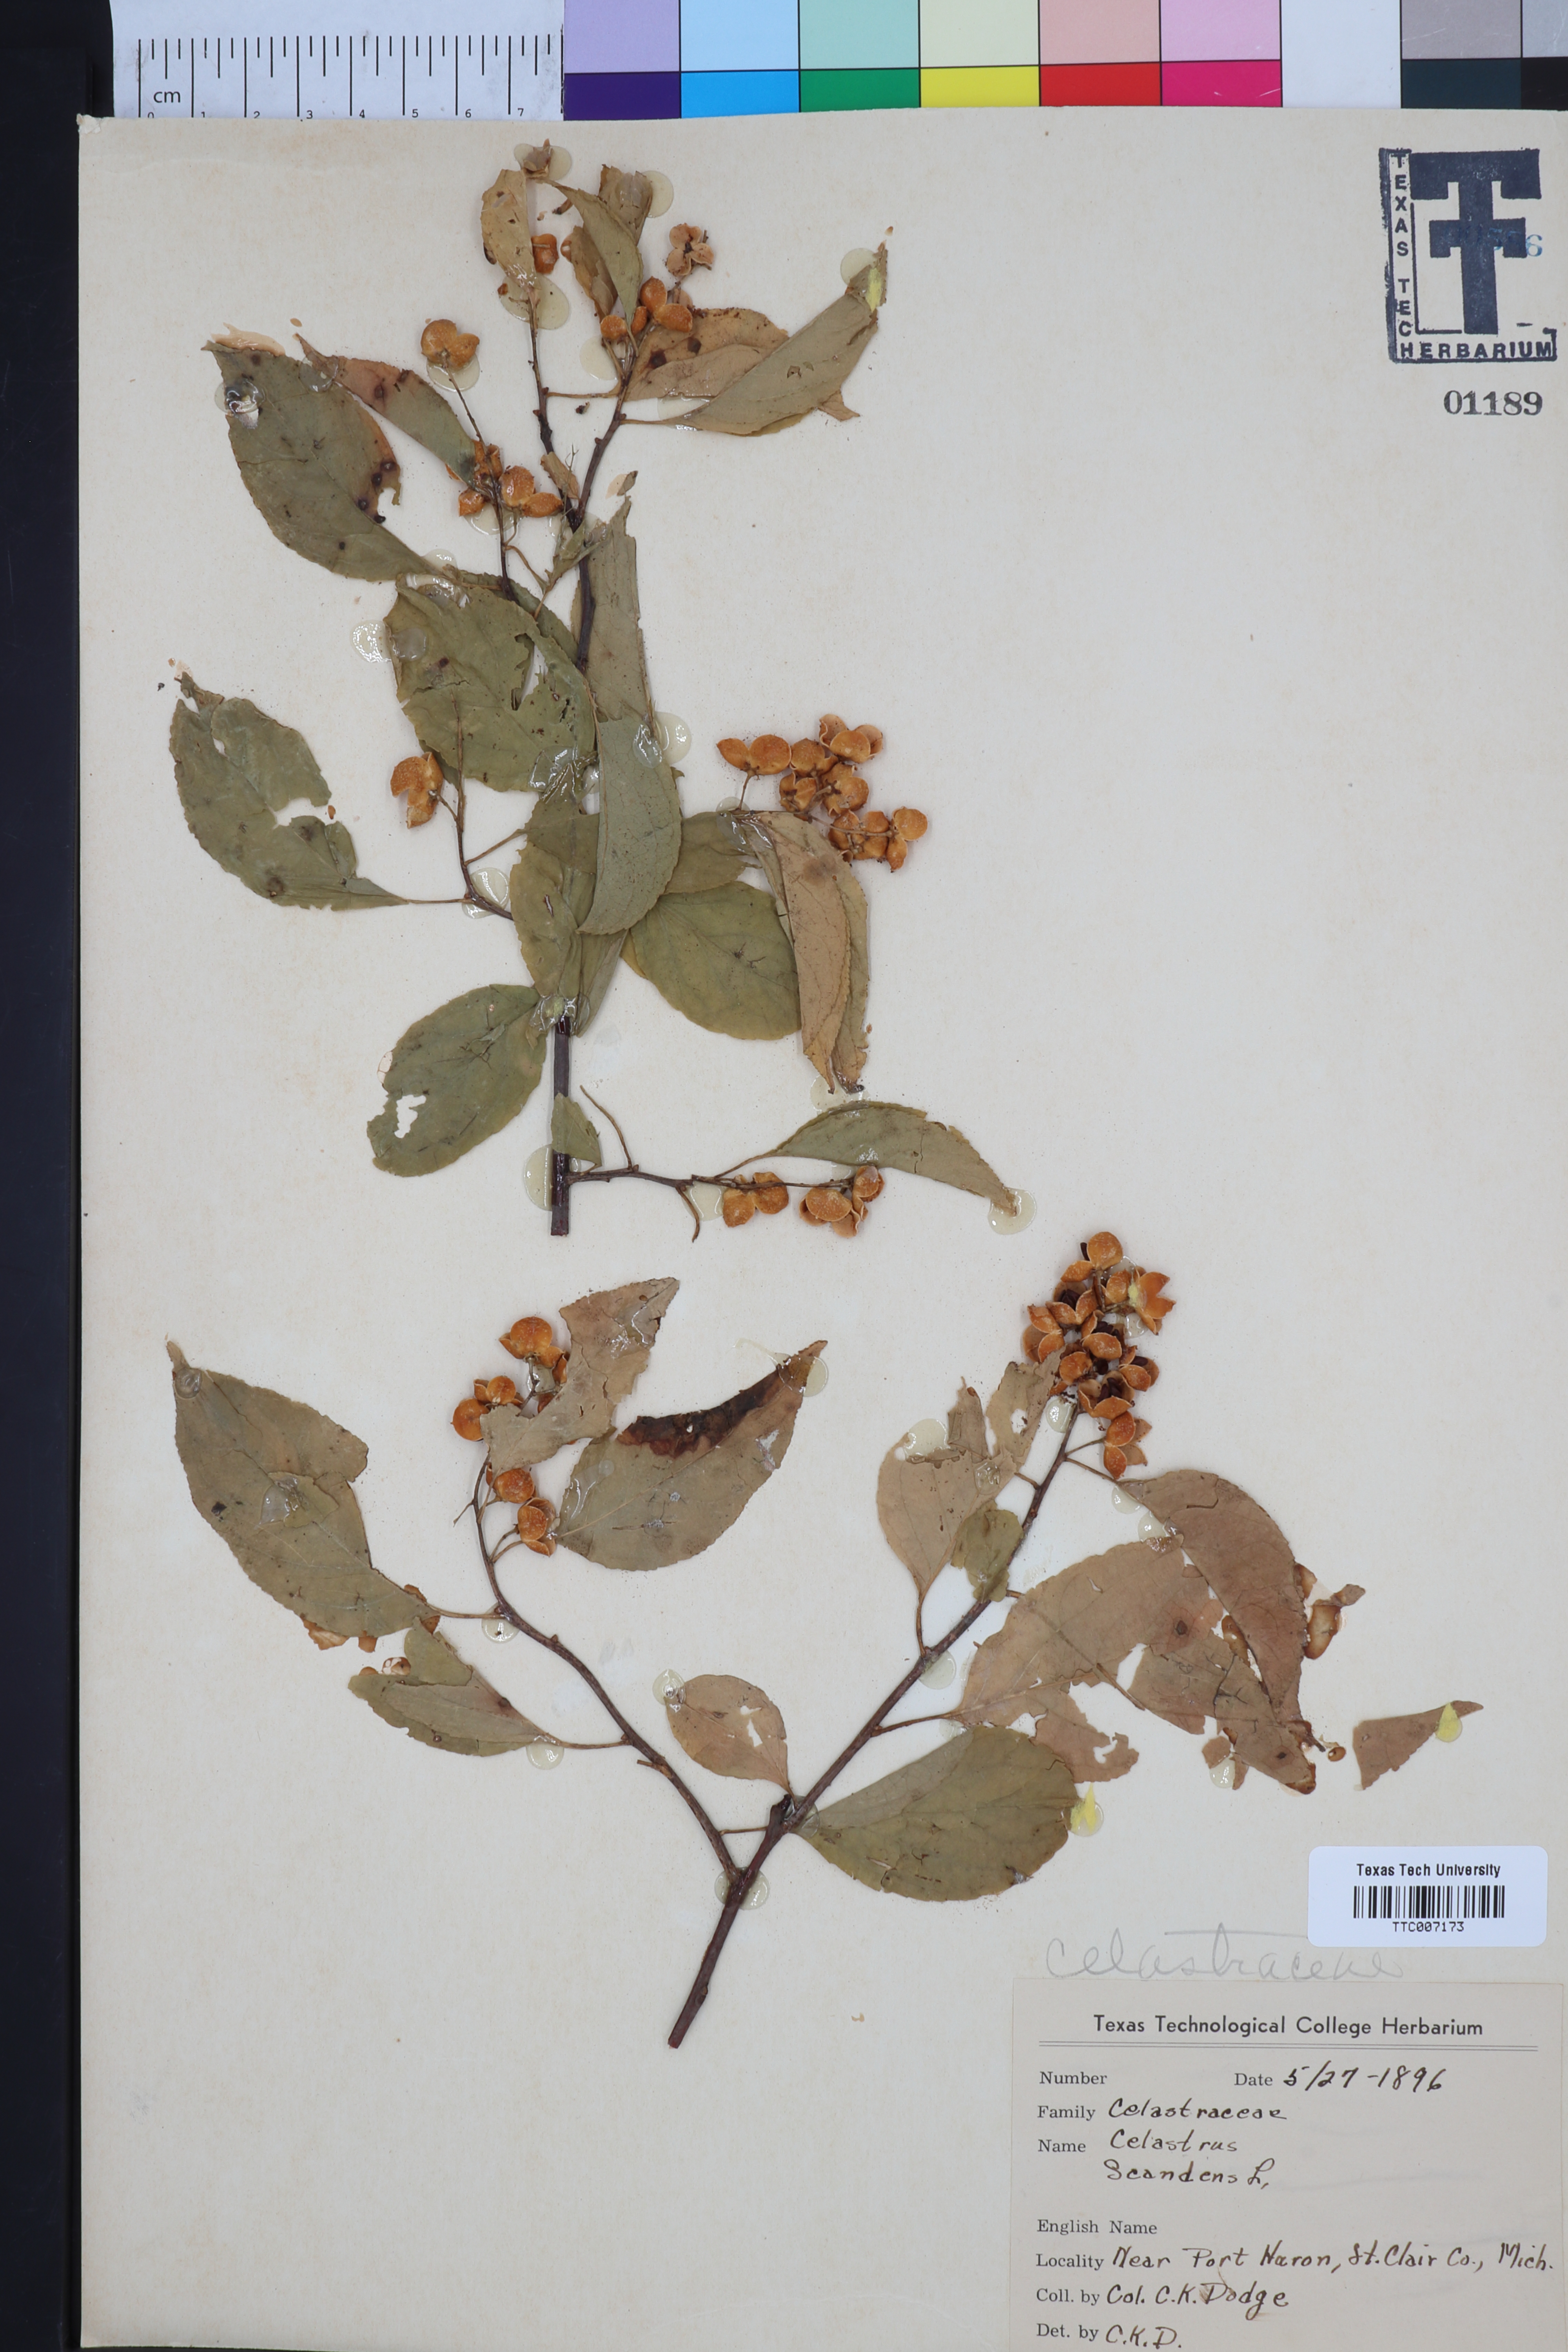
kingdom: Plantae
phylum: Tracheophyta
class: Magnoliopsida
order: Celastrales
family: Celastraceae
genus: Celastrus
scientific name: Celastrus scandens
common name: American bittersweet
